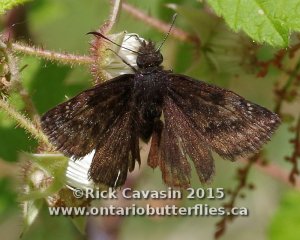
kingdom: Animalia
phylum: Arthropoda
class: Insecta
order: Lepidoptera
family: Hesperiidae
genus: Gesta
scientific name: Gesta
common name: Columbine Duskywing
